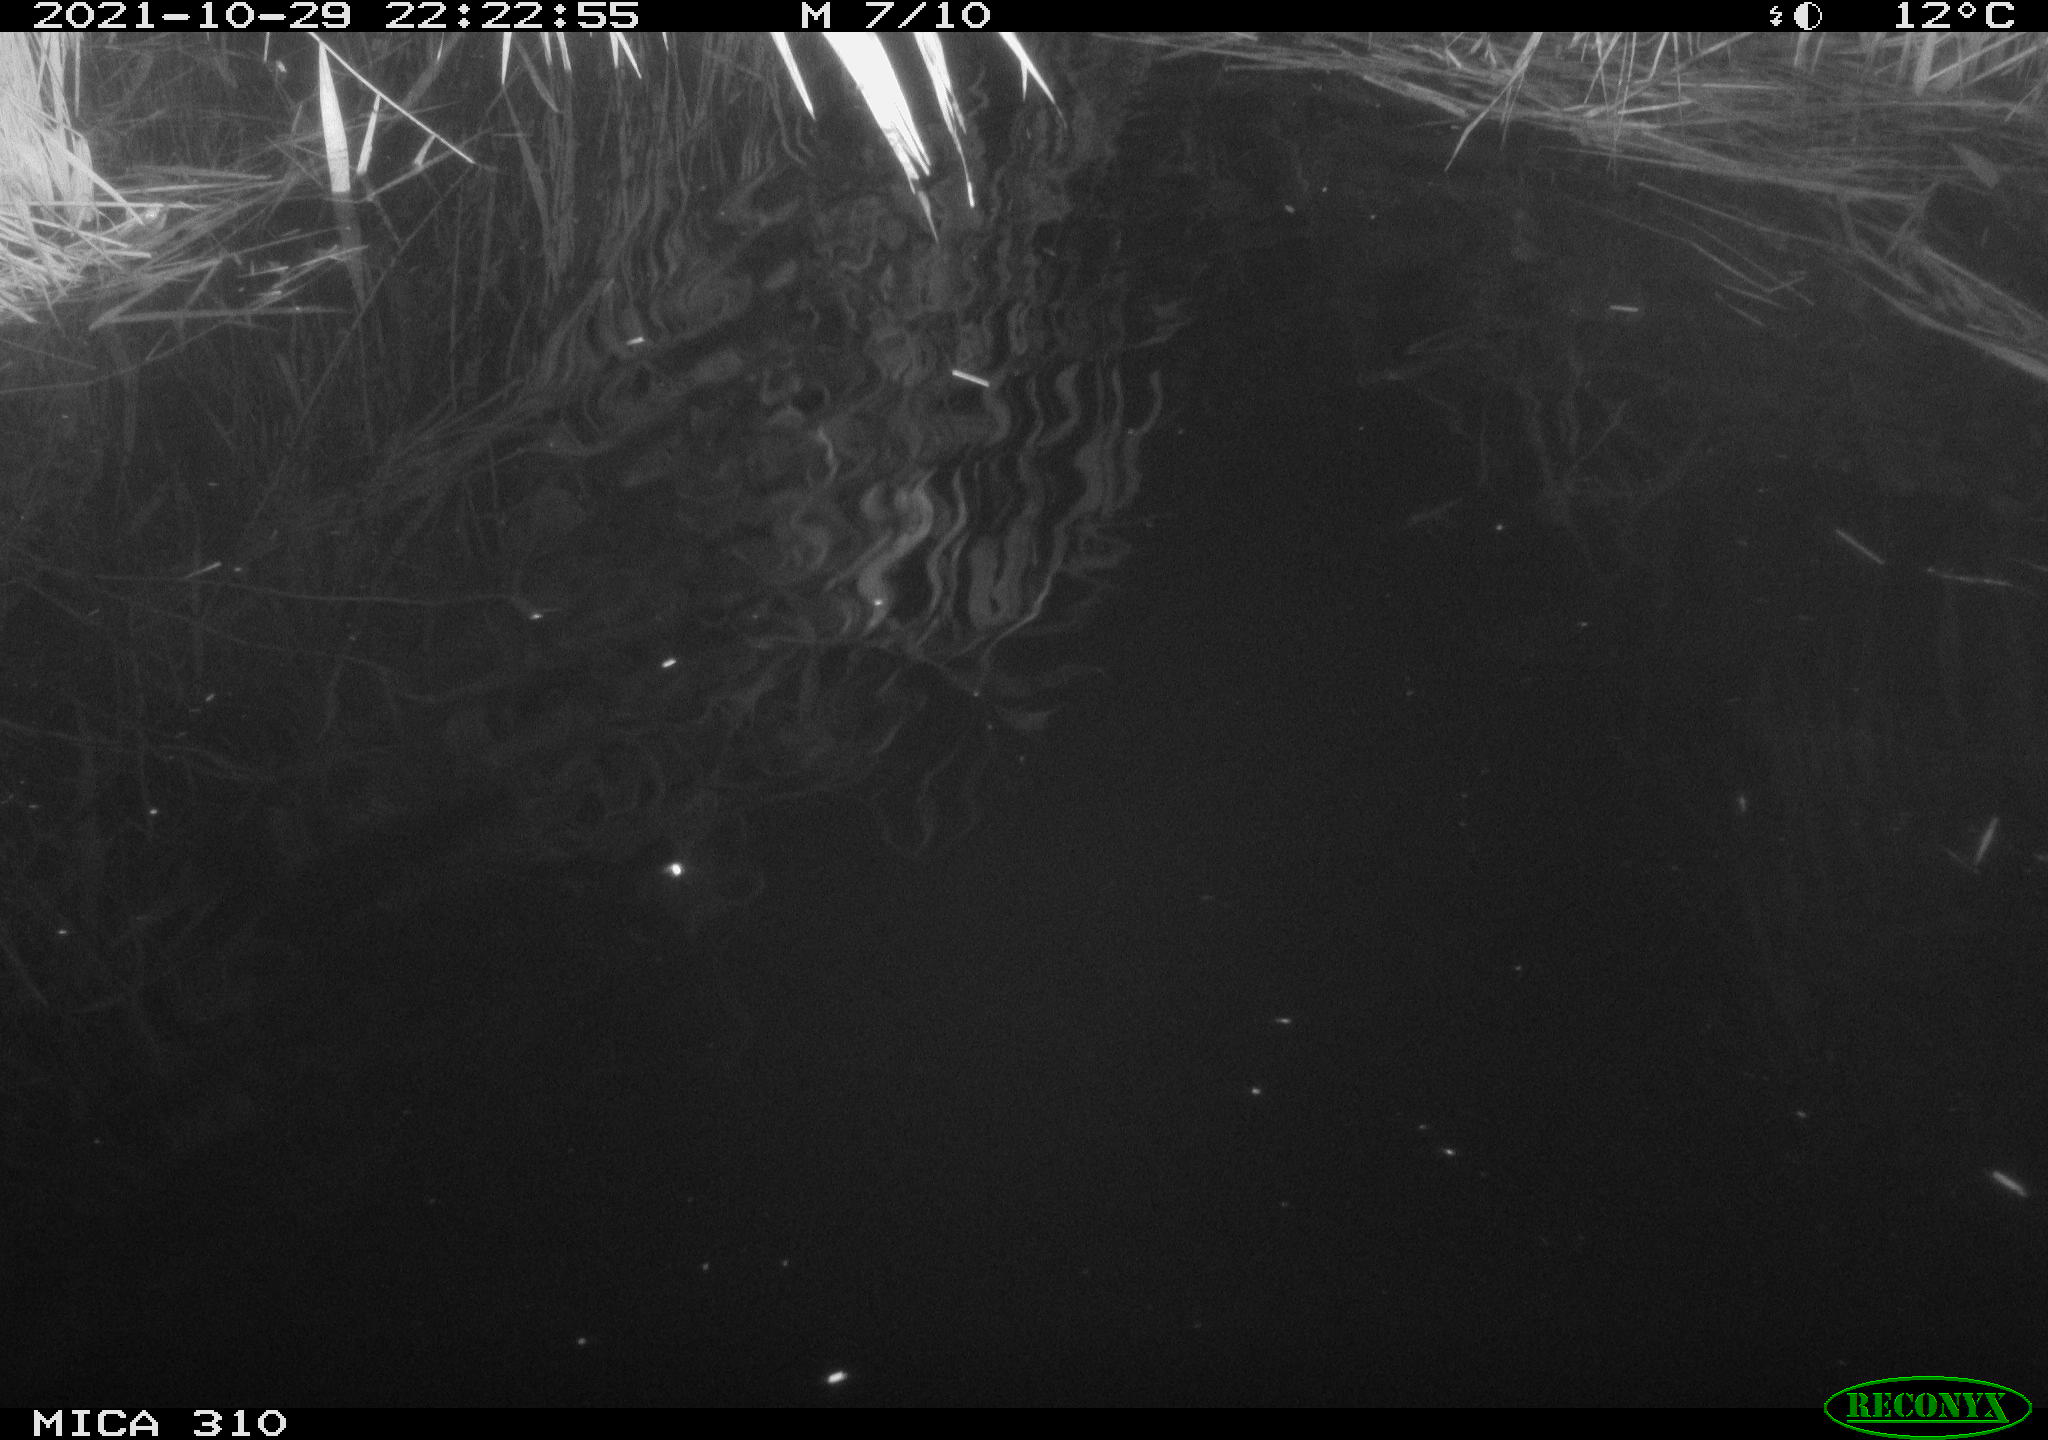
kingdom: Animalia
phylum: Chordata
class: Mammalia
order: Rodentia
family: Muridae
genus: Rattus
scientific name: Rattus norvegicus
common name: Brown rat
